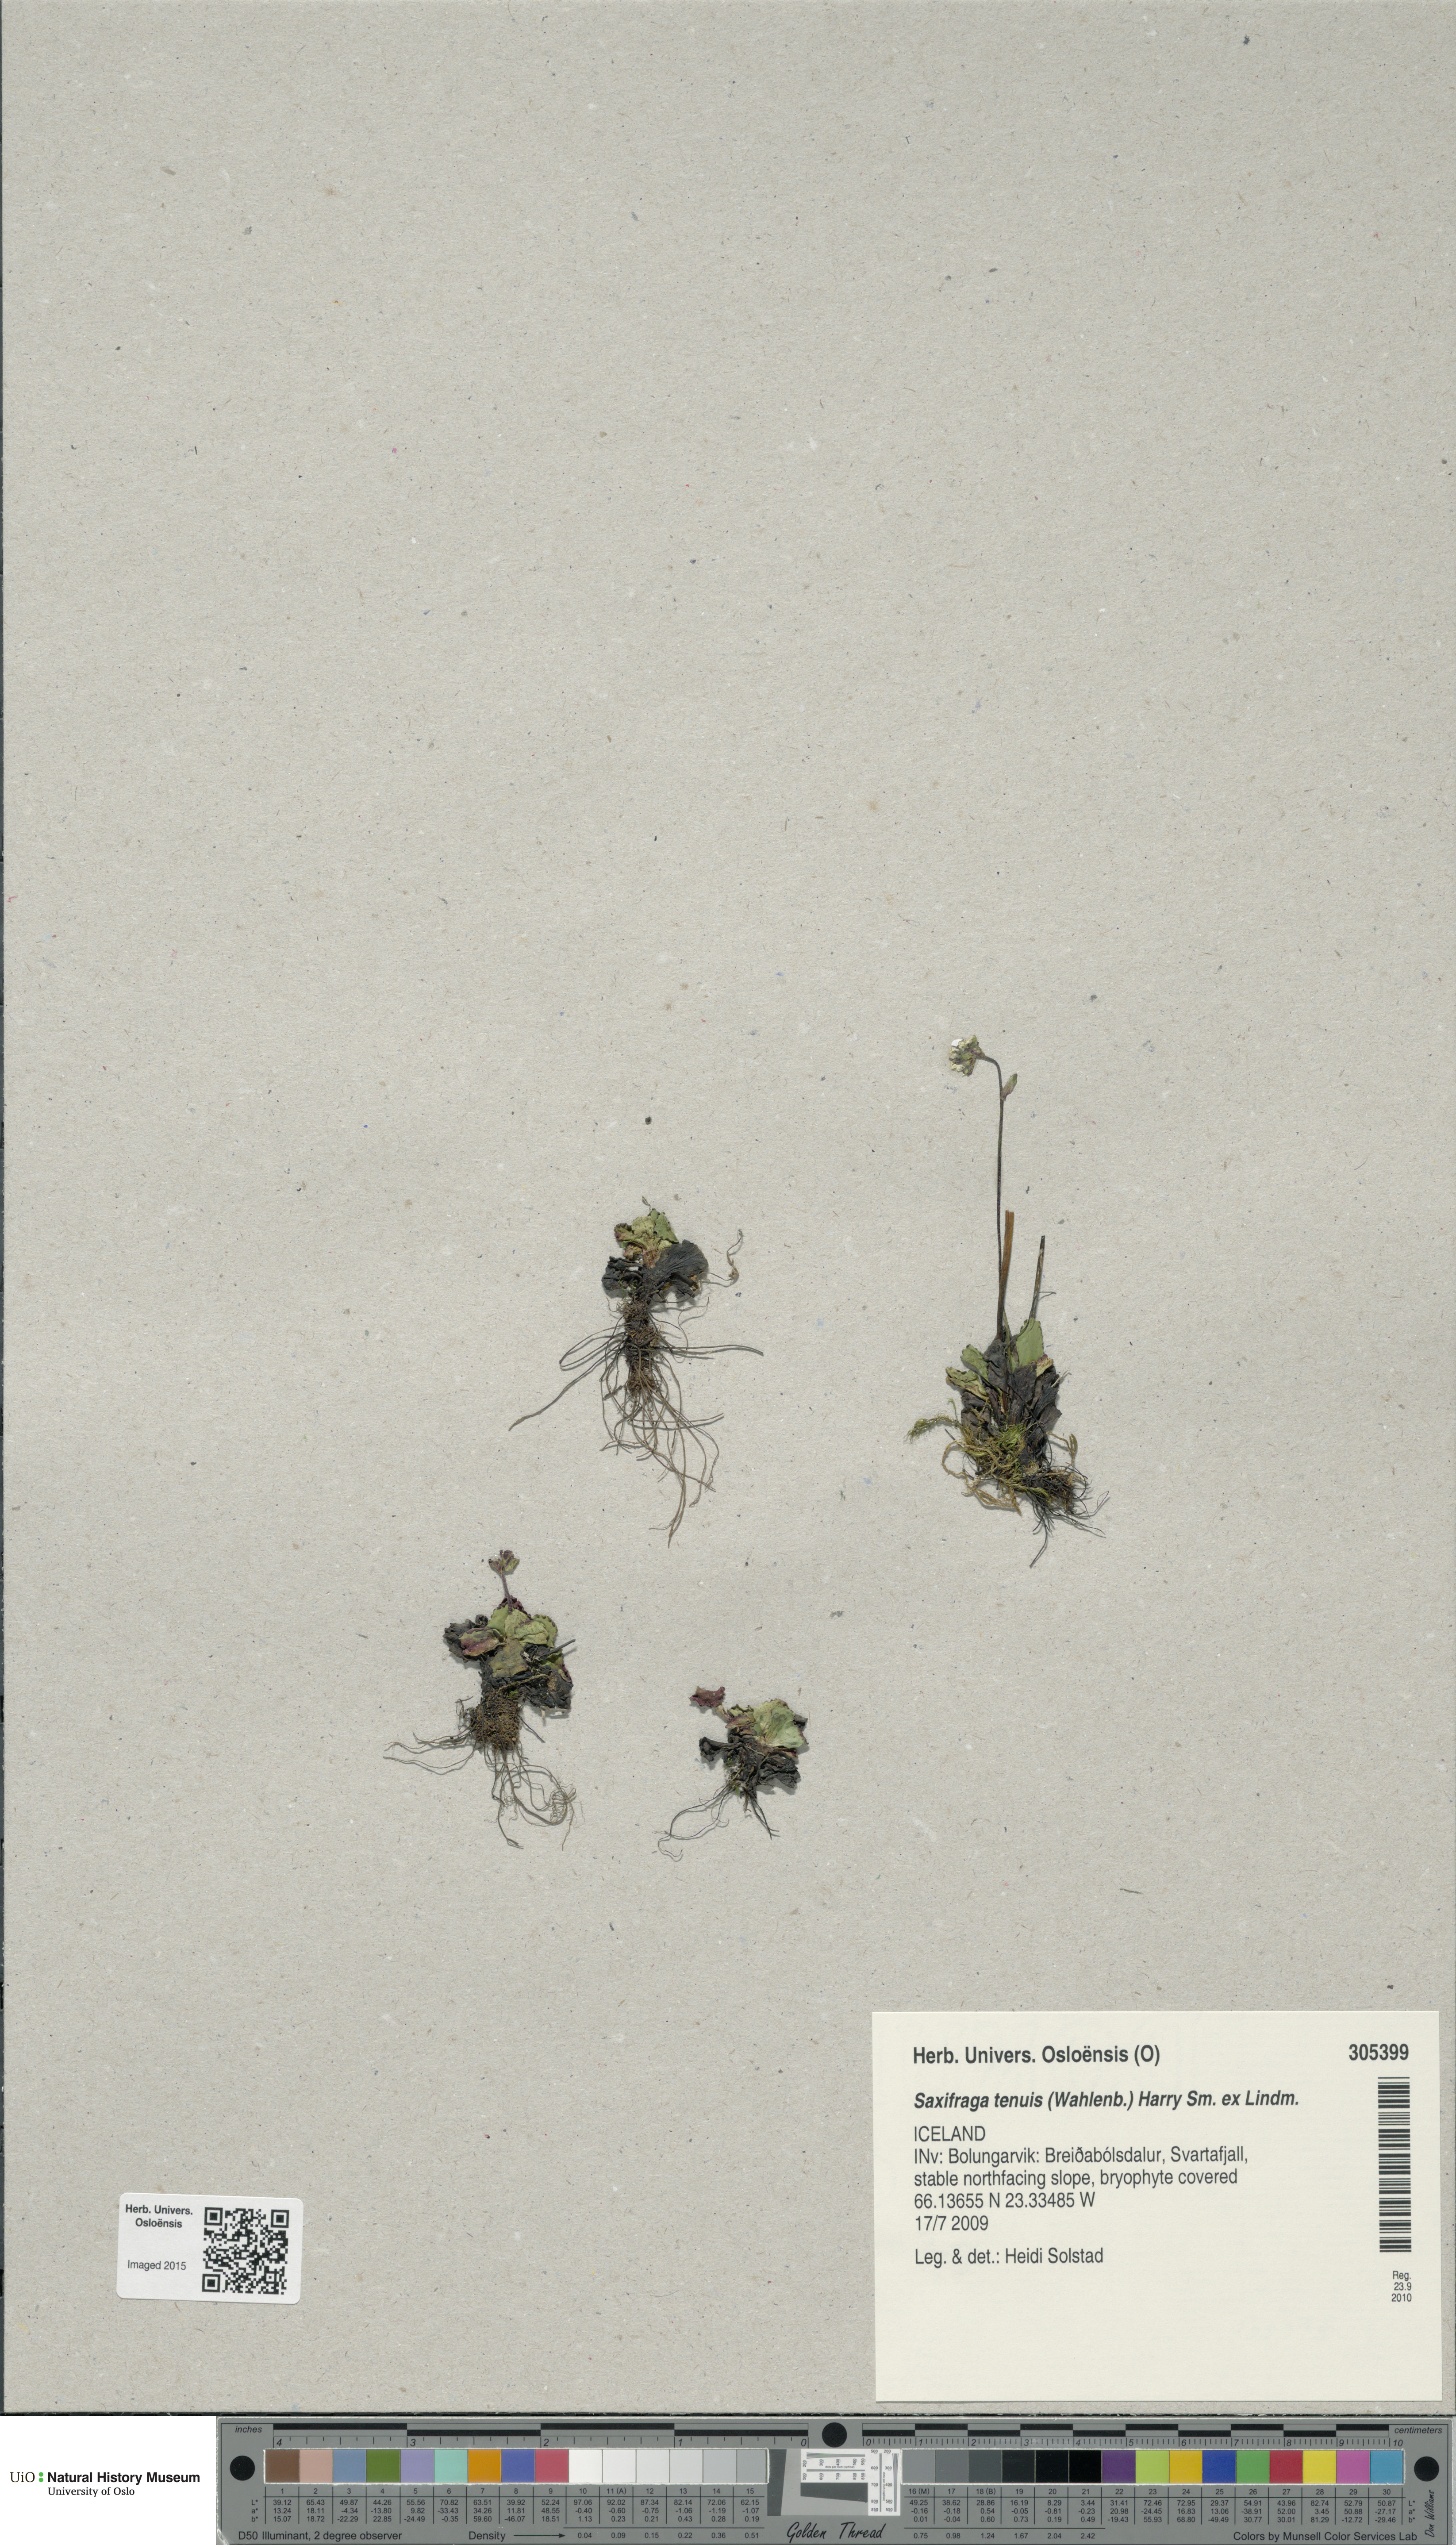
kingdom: Plantae
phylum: Tracheophyta
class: Magnoliopsida
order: Saxifragales
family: Saxifragaceae
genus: Micranthes
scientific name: Micranthes tenuis
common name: Ottertail pass saxifrage
